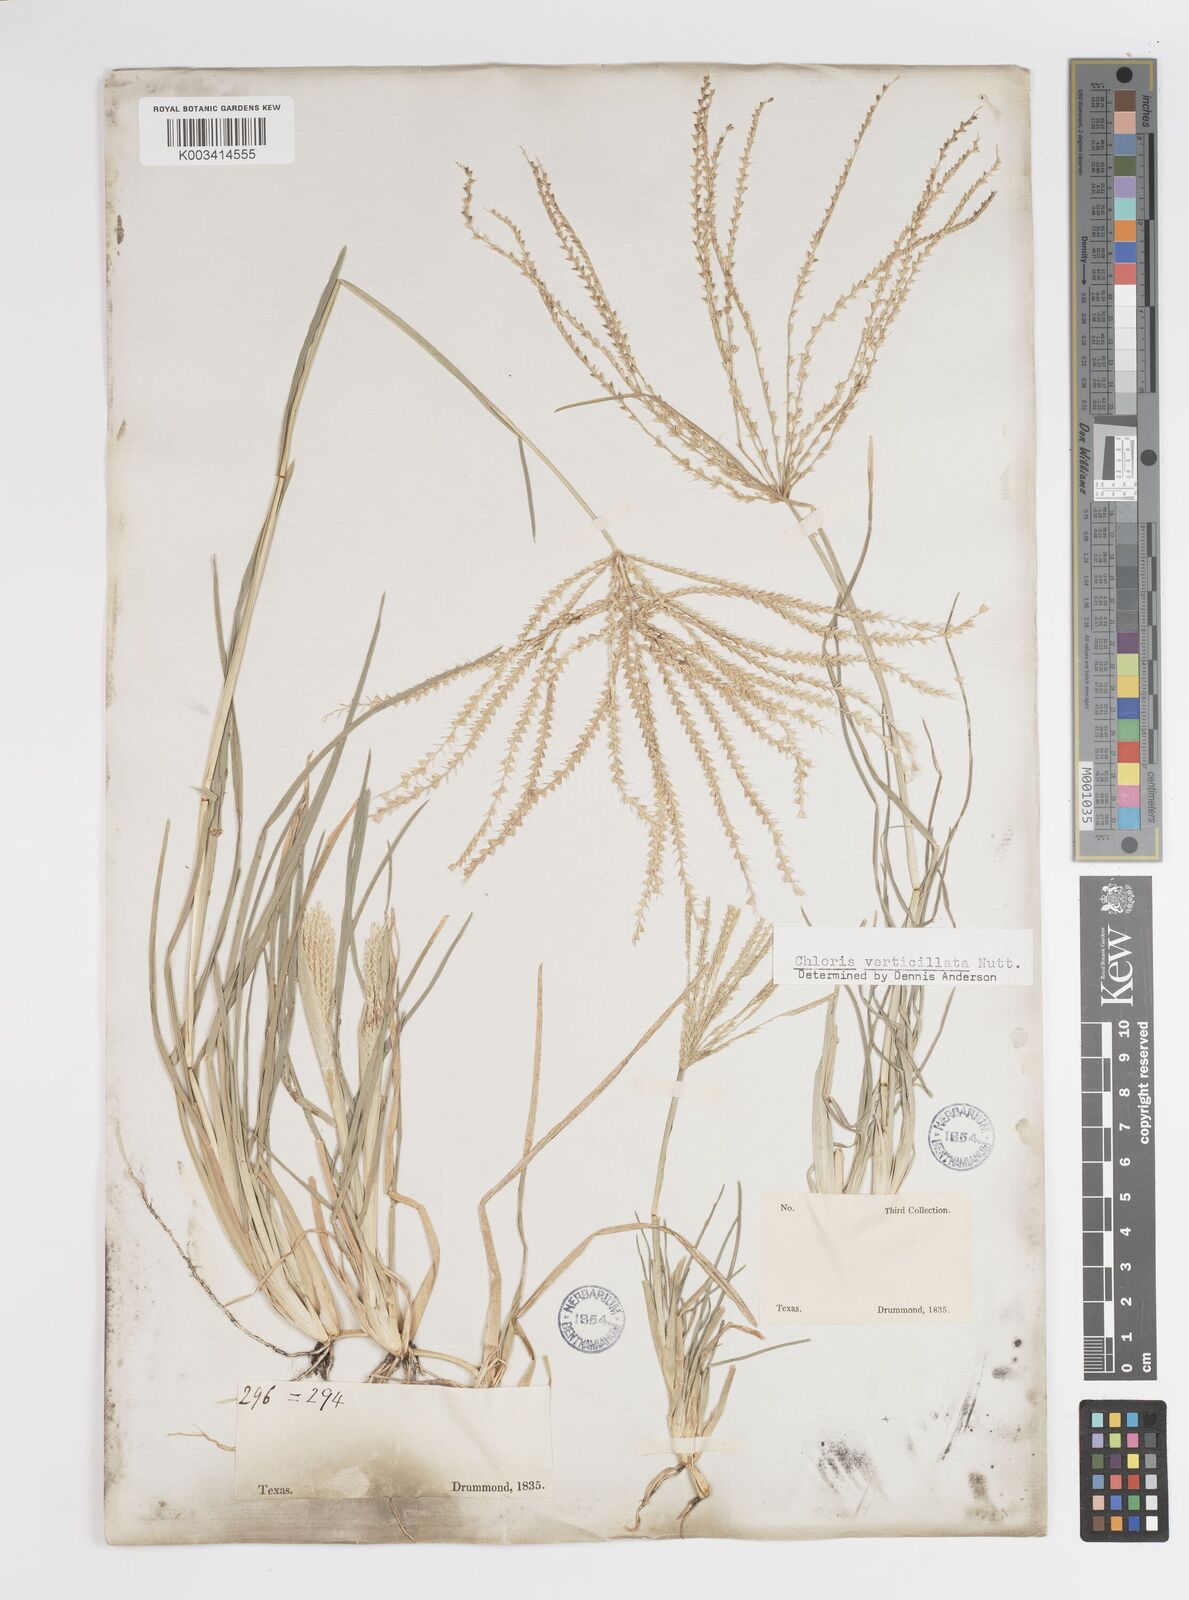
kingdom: Plantae
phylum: Tracheophyta
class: Liliopsida
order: Poales
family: Poaceae
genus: Chloris
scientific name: Chloris verticillata
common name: Tumble windmill grass
